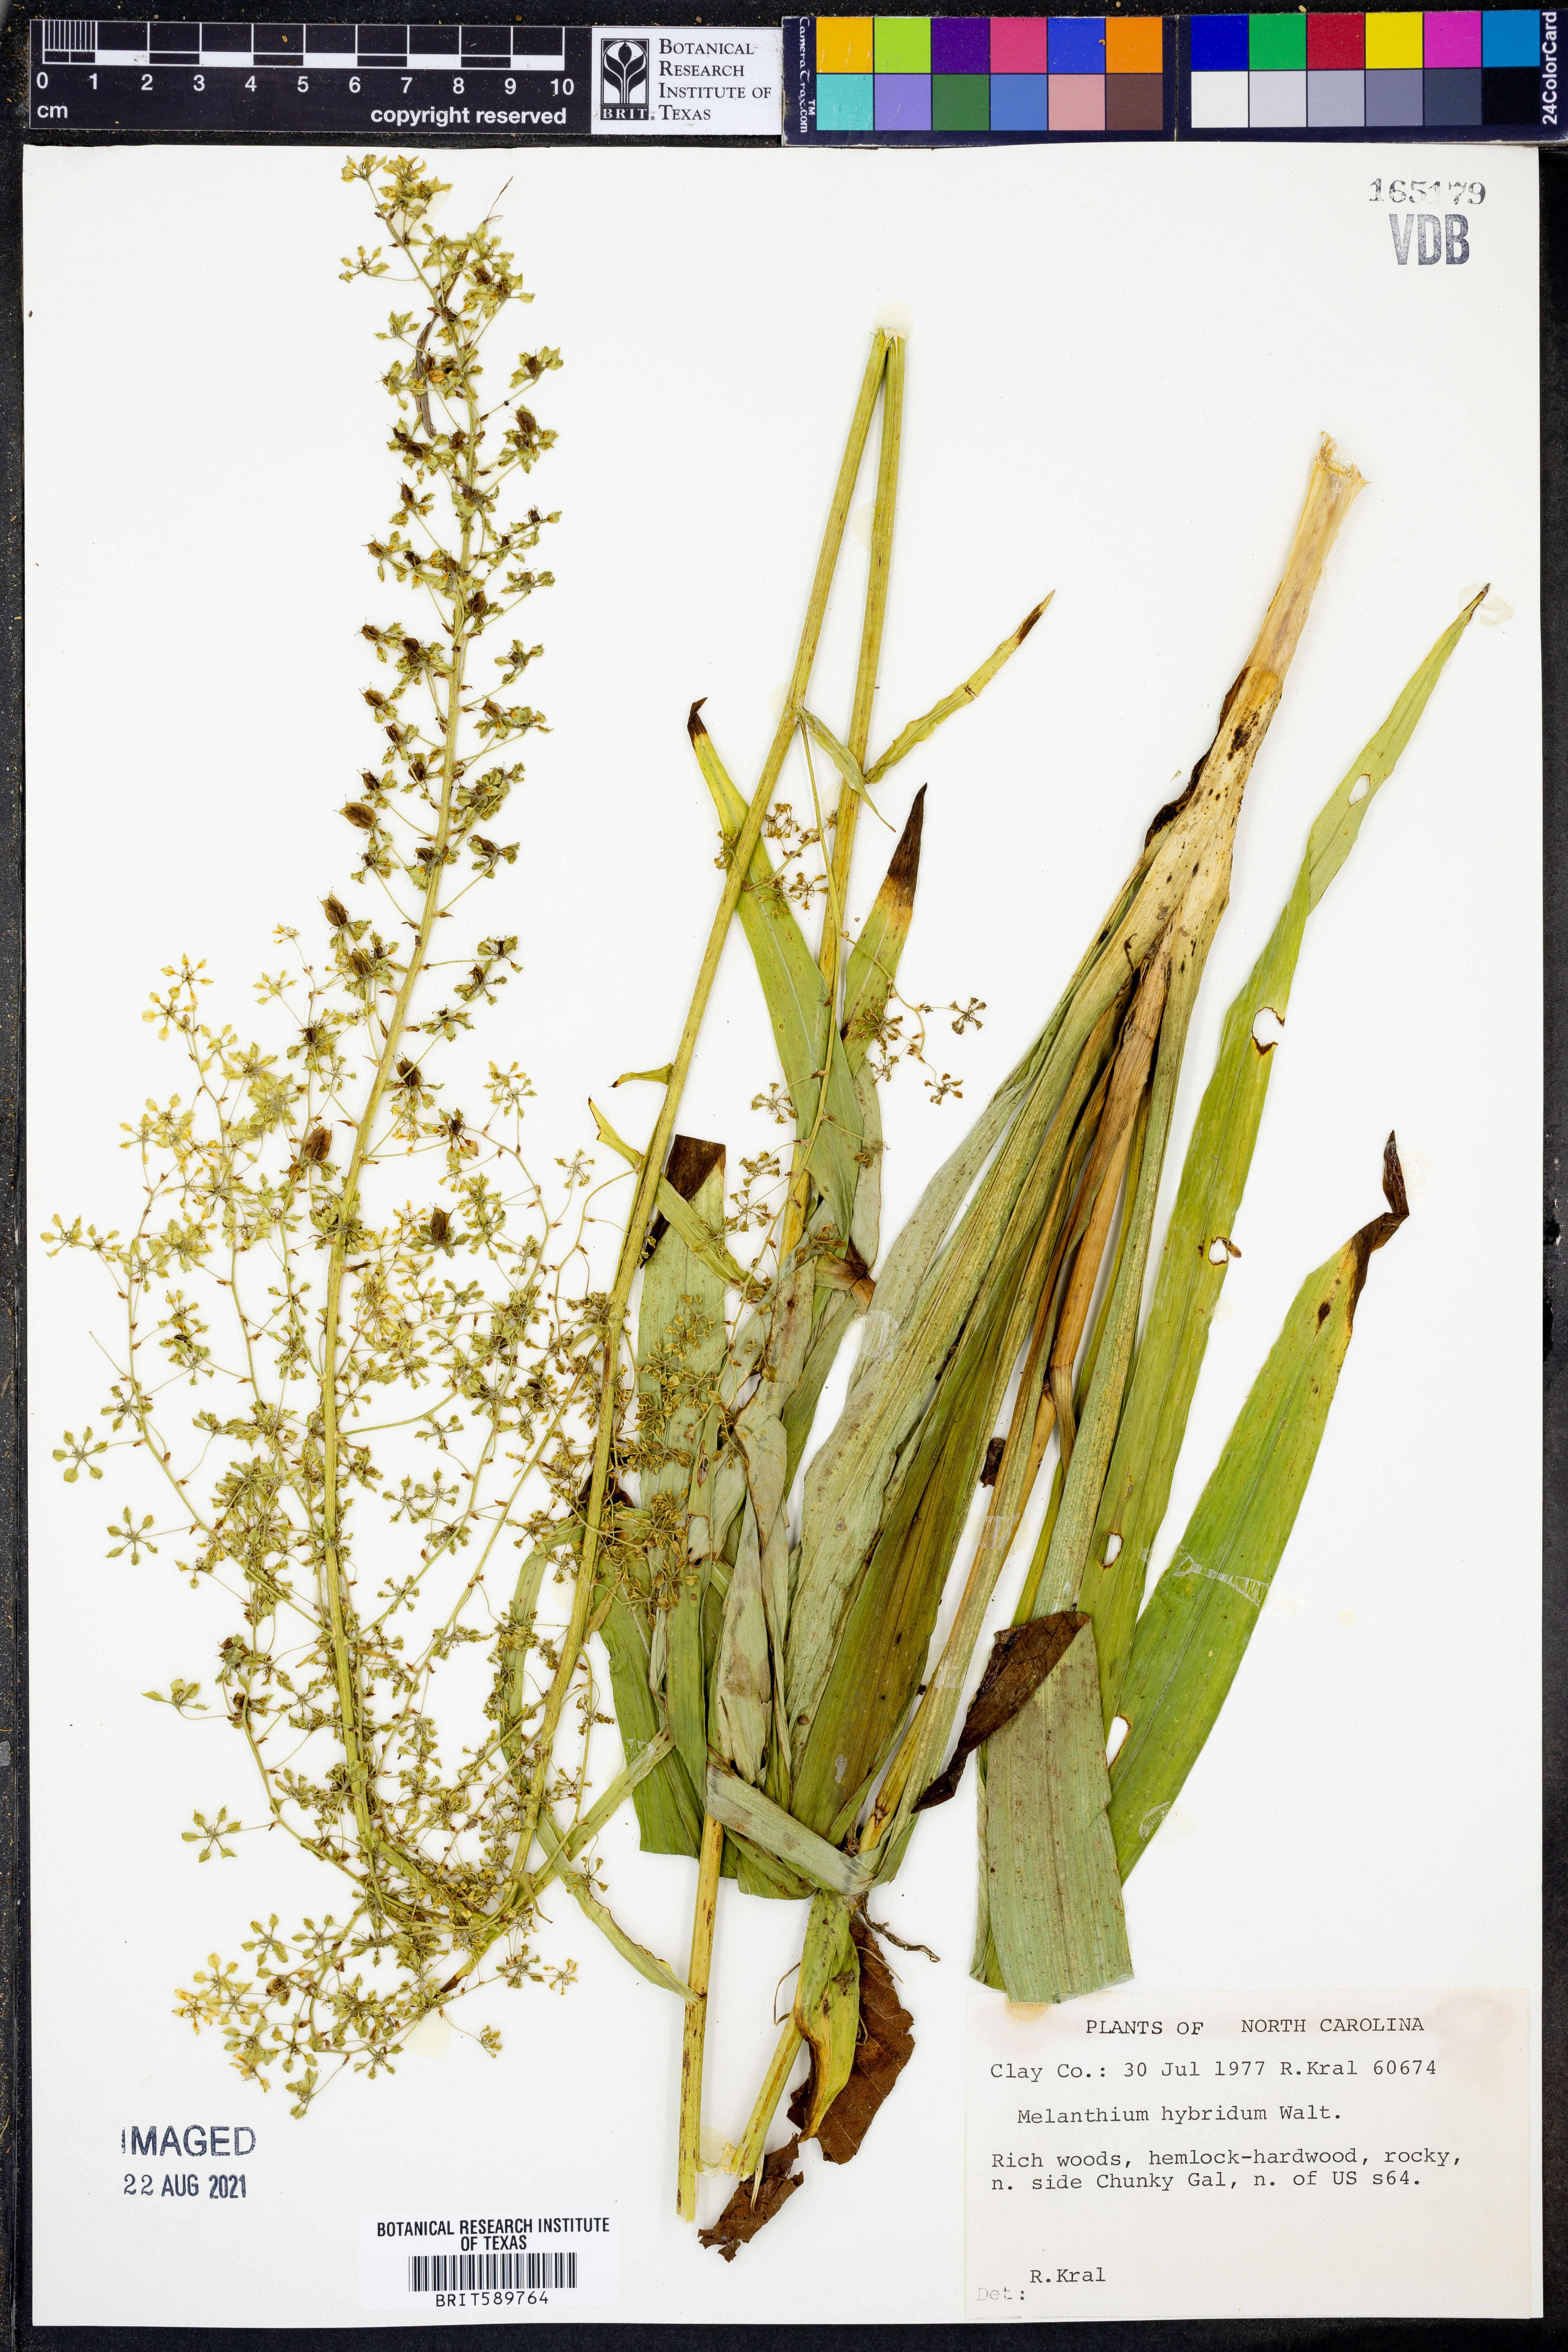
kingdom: Plantae
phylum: Tracheophyta
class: Liliopsida
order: Liliales
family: Melanthiaceae
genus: Melanthium
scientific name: Melanthium hybridum
